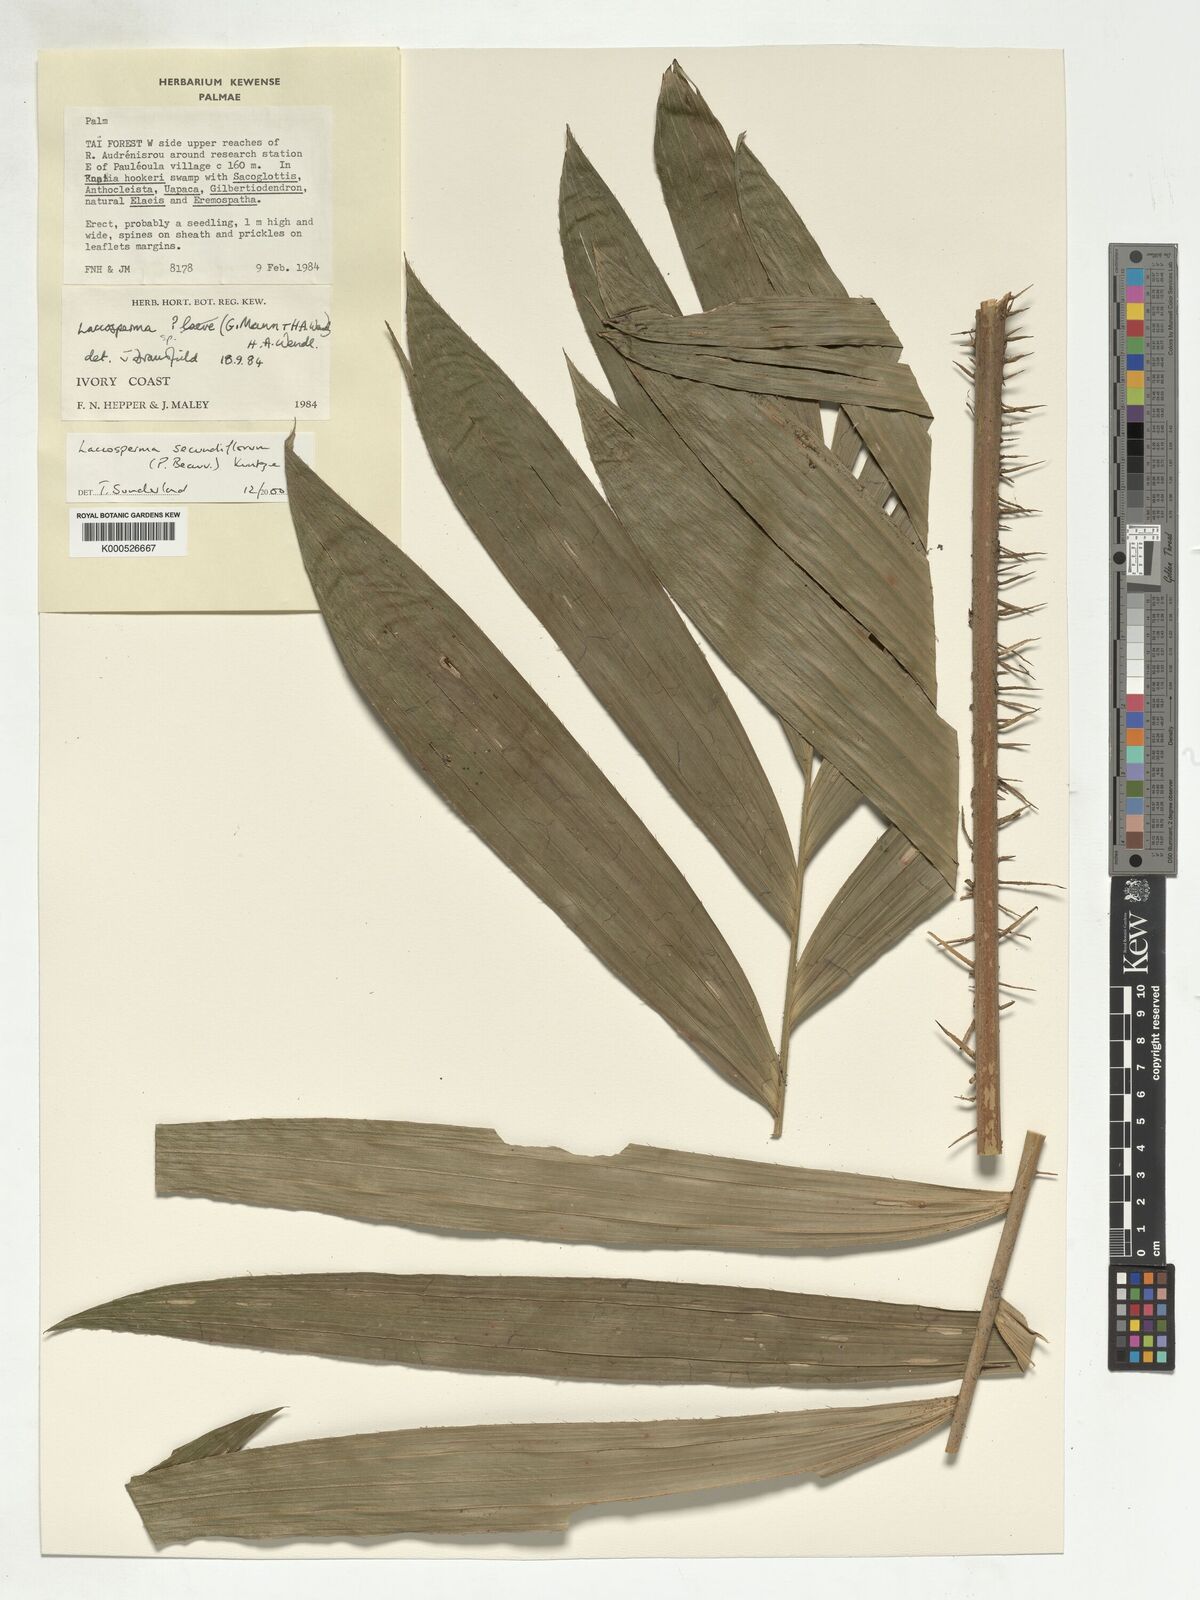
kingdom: Plantae
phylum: Tracheophyta
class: Liliopsida
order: Arecales
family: Arecaceae
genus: Laccosperma
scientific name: Laccosperma secundiflorum
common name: Rattan
